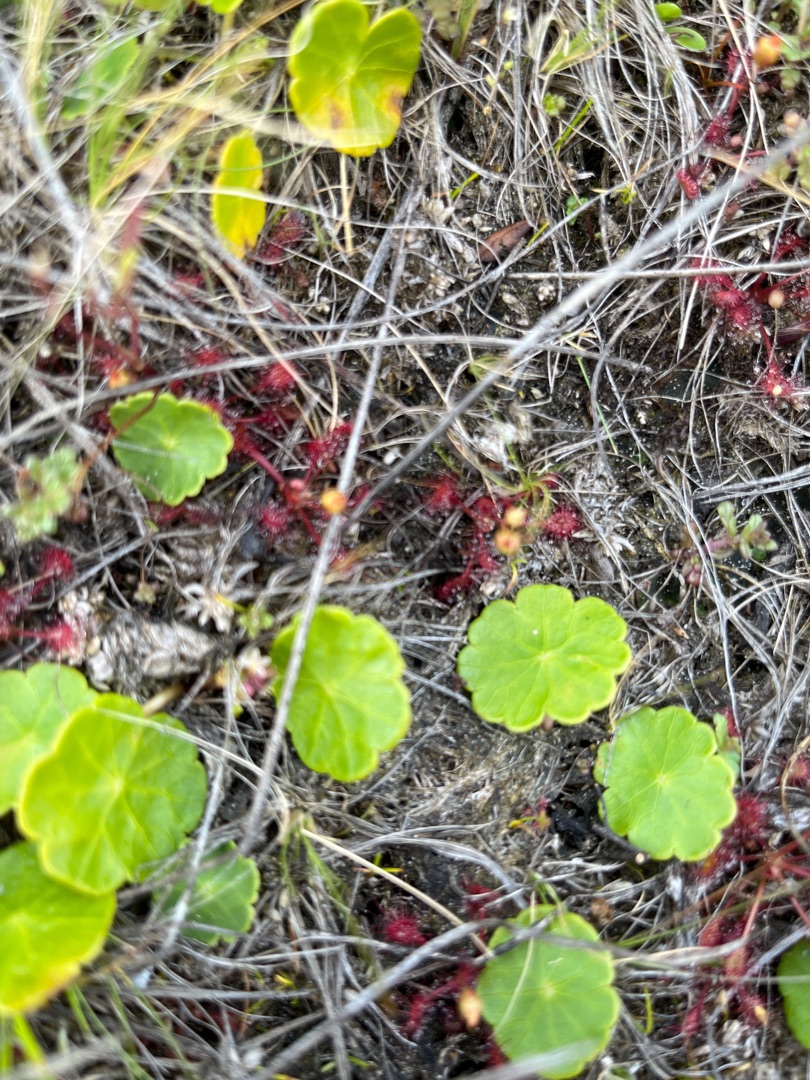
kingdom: Plantae
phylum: Tracheophyta
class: Magnoliopsida
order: Apiales
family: Araliaceae
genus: Hydrocotyle
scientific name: Hydrocotyle vulgaris
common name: Vandnavle
